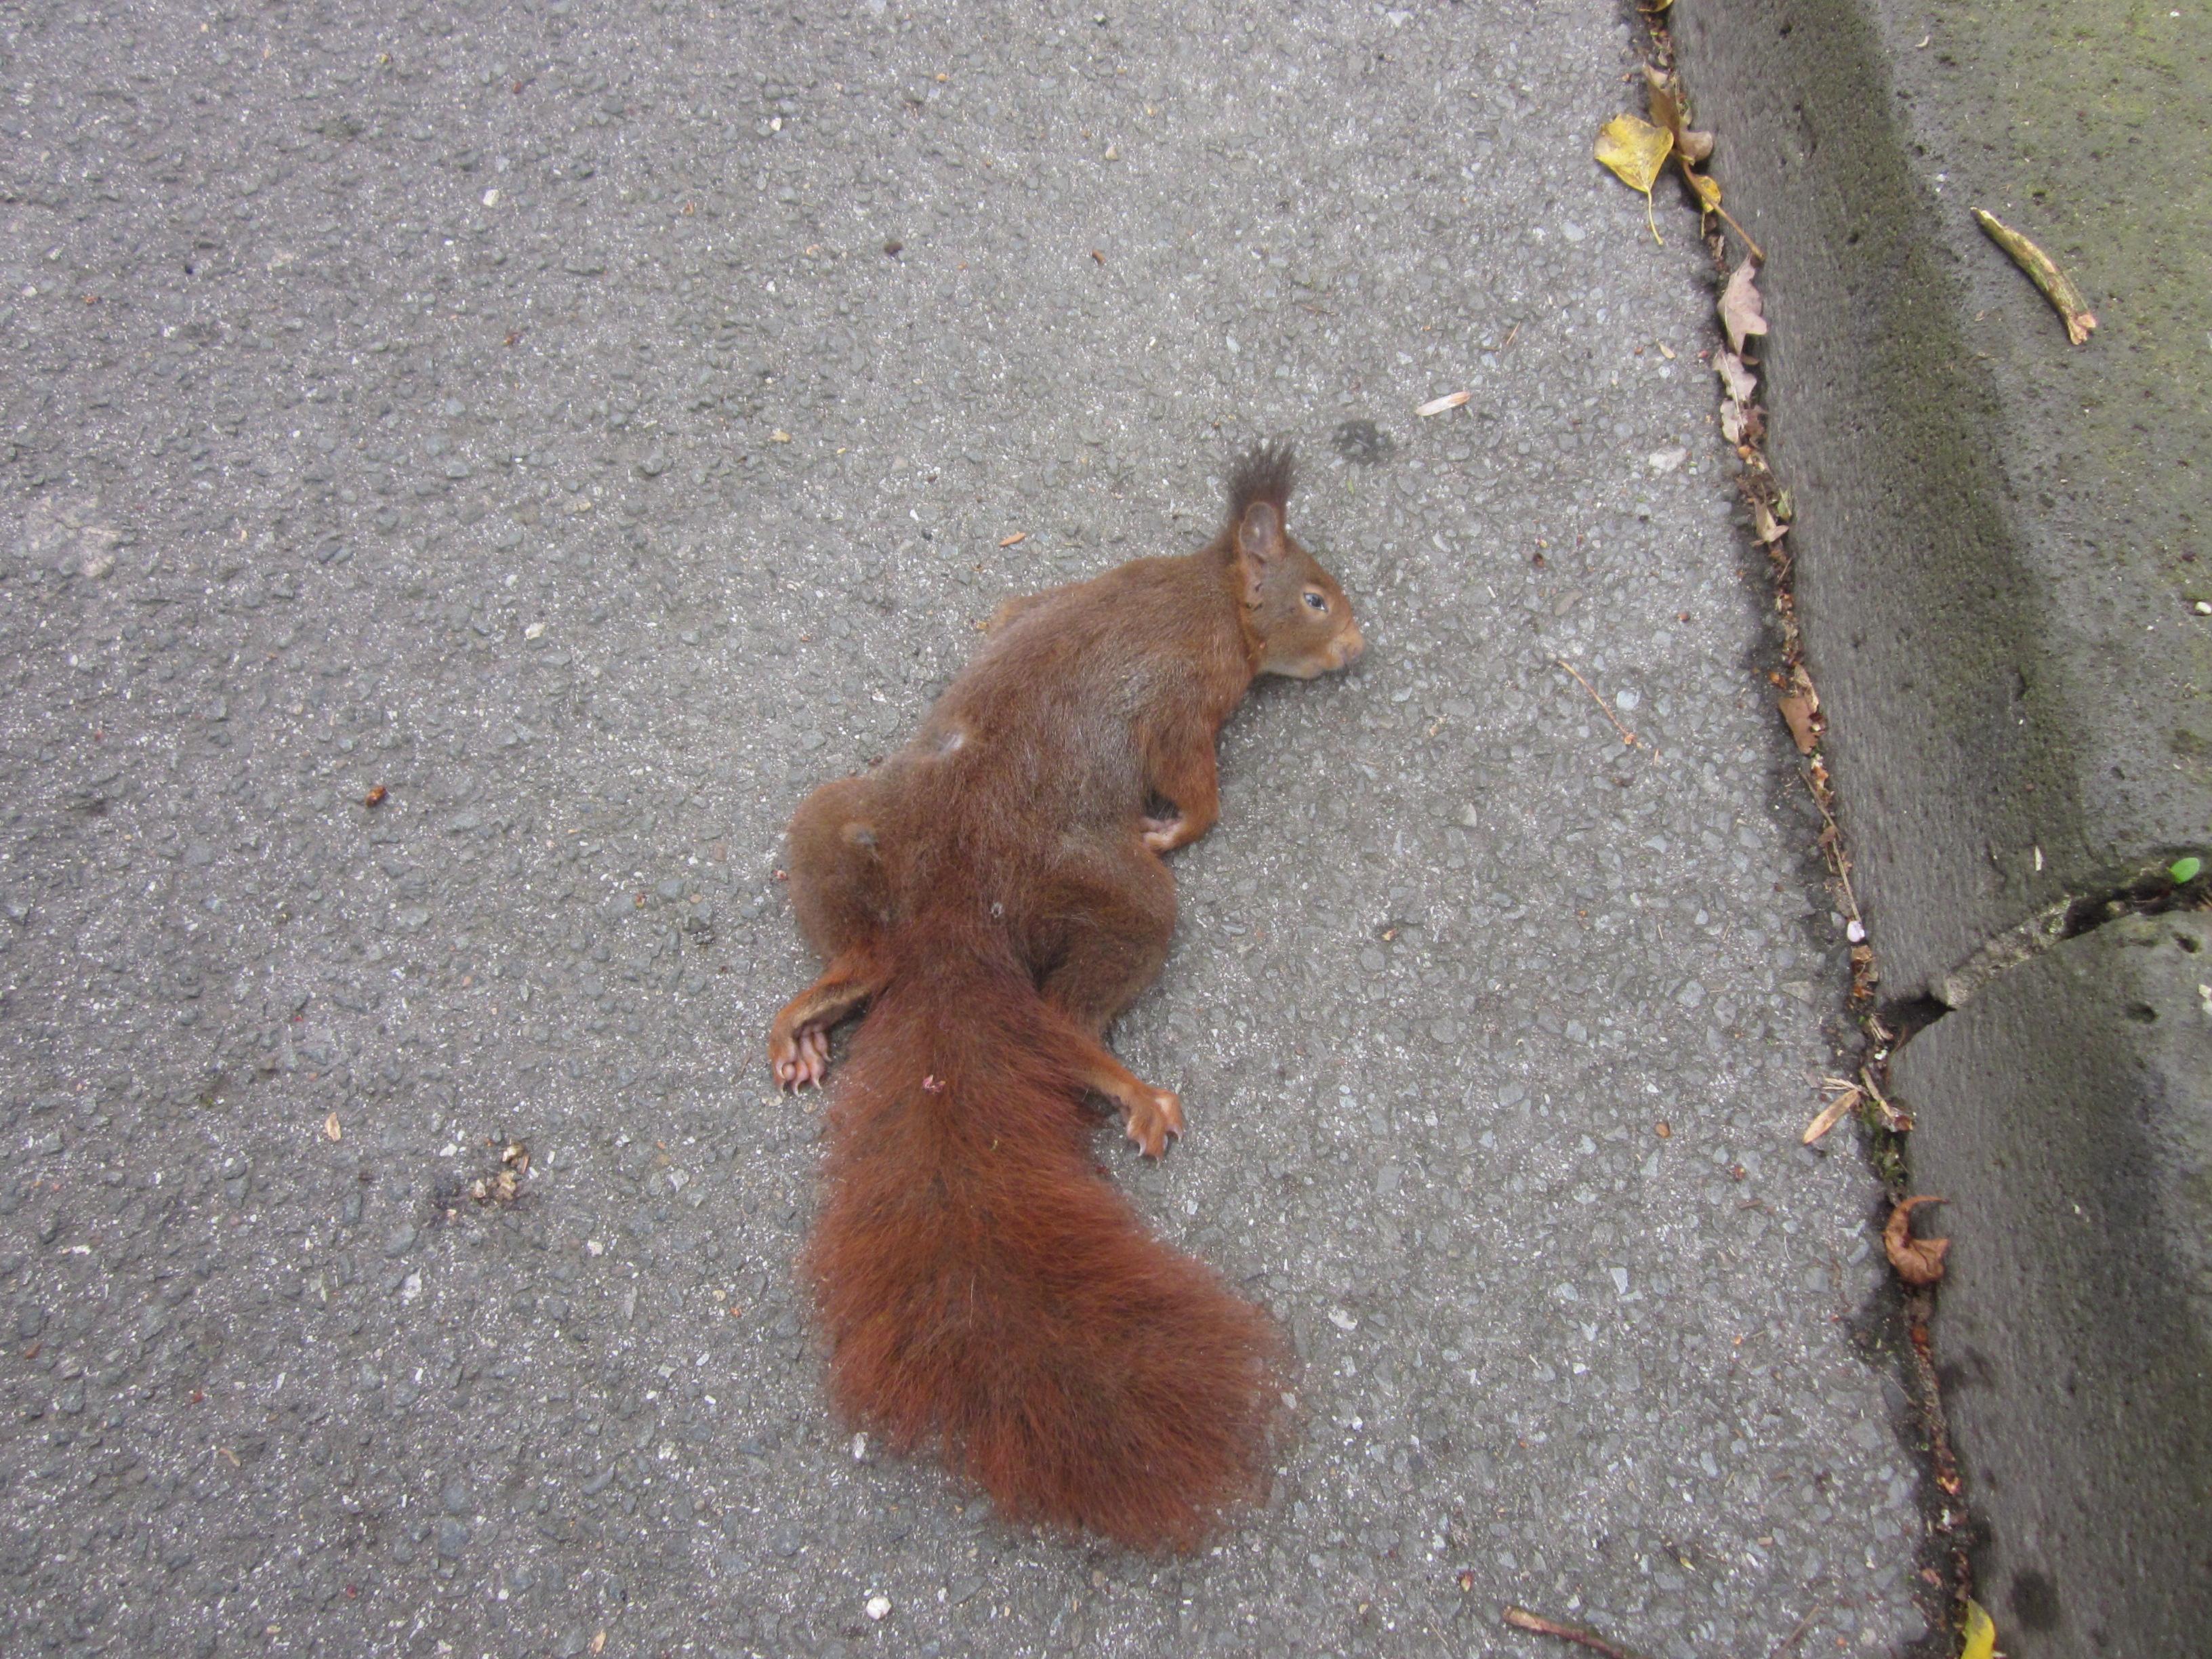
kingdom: Animalia
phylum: Chordata
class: Mammalia
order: Rodentia
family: Sciuridae
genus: Sciurus
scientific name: Sciurus vulgaris
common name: Eurasian red squirrel
